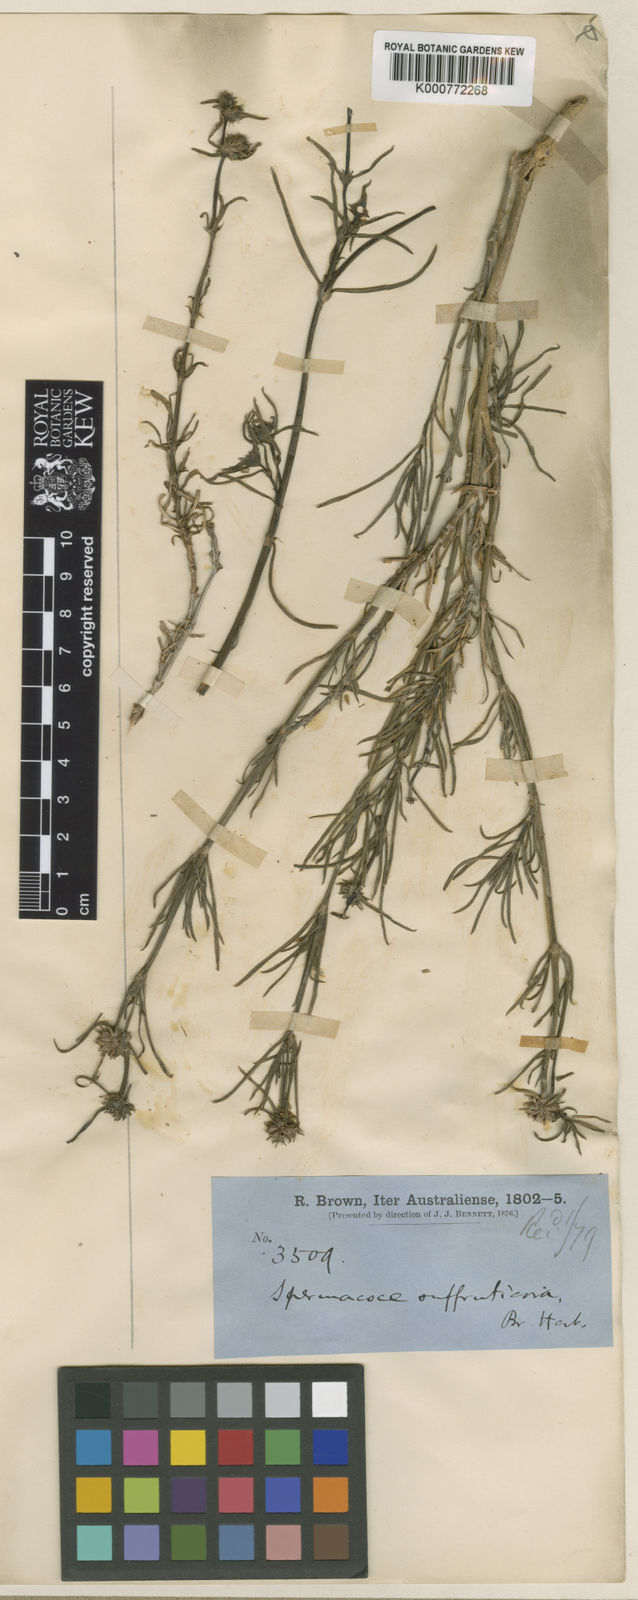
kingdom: Plantae
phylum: Tracheophyta
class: Magnoliopsida
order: Gentianales
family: Rubiaceae
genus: Spermacoce
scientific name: Spermacoce omissa
